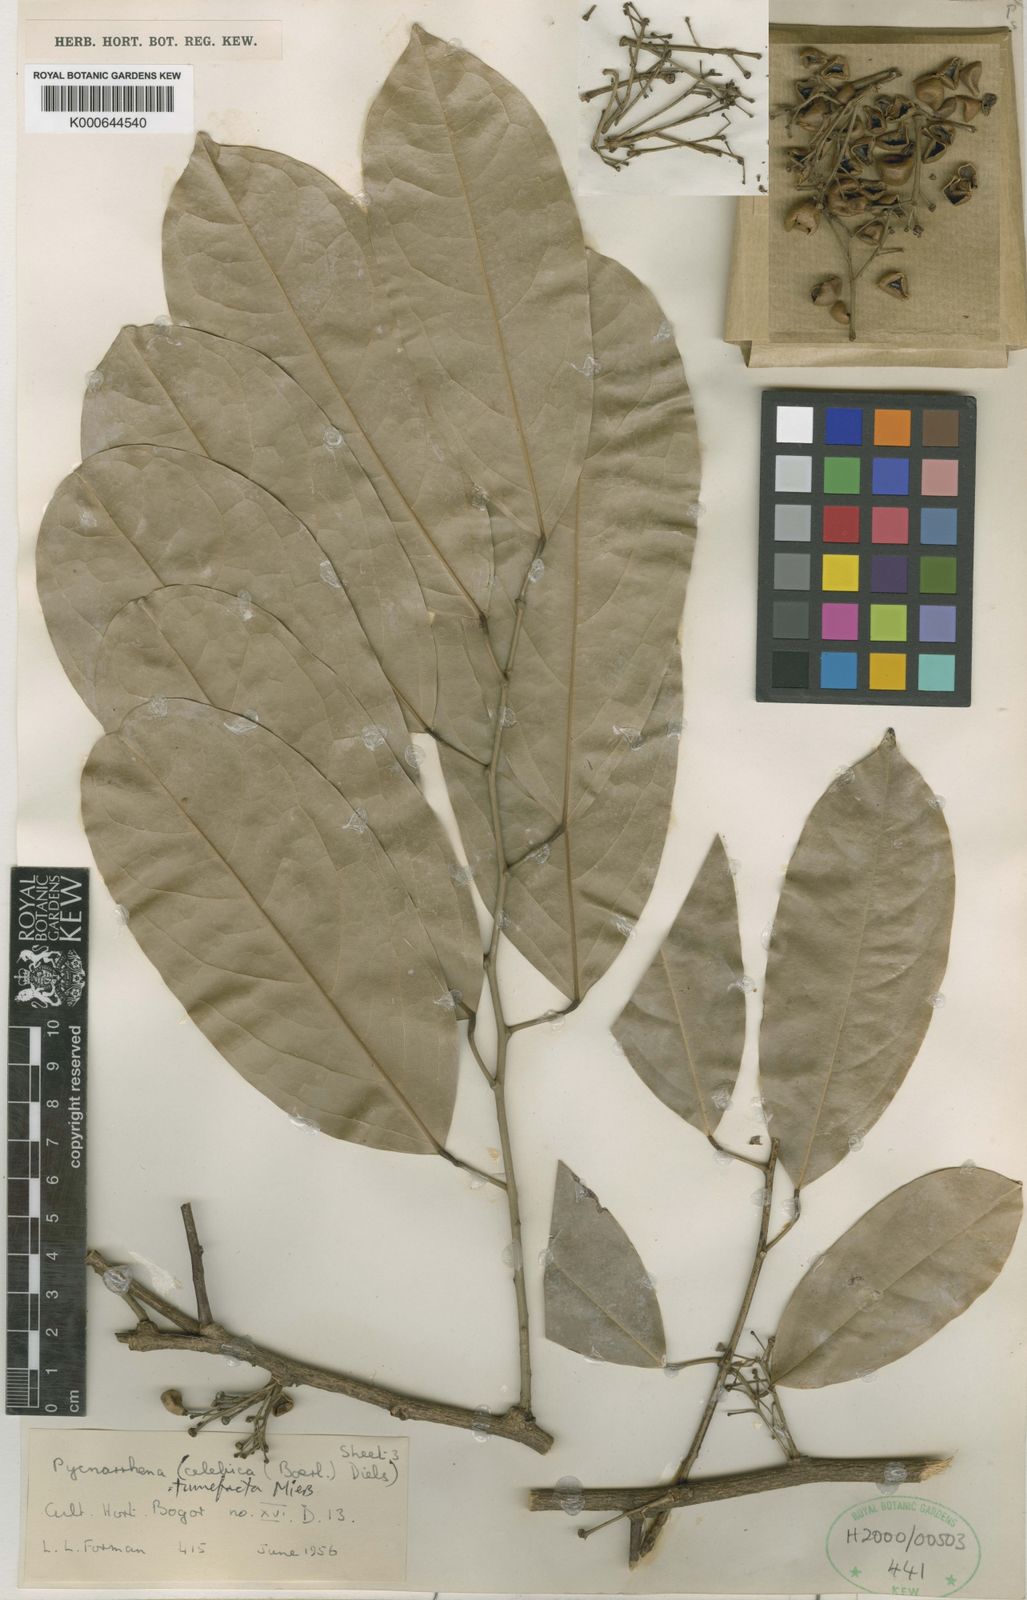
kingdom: Plantae
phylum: Tracheophyta
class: Magnoliopsida
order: Ranunculales
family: Menispermaceae
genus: Pycnarrhena
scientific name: Pycnarrhena tumefacta
